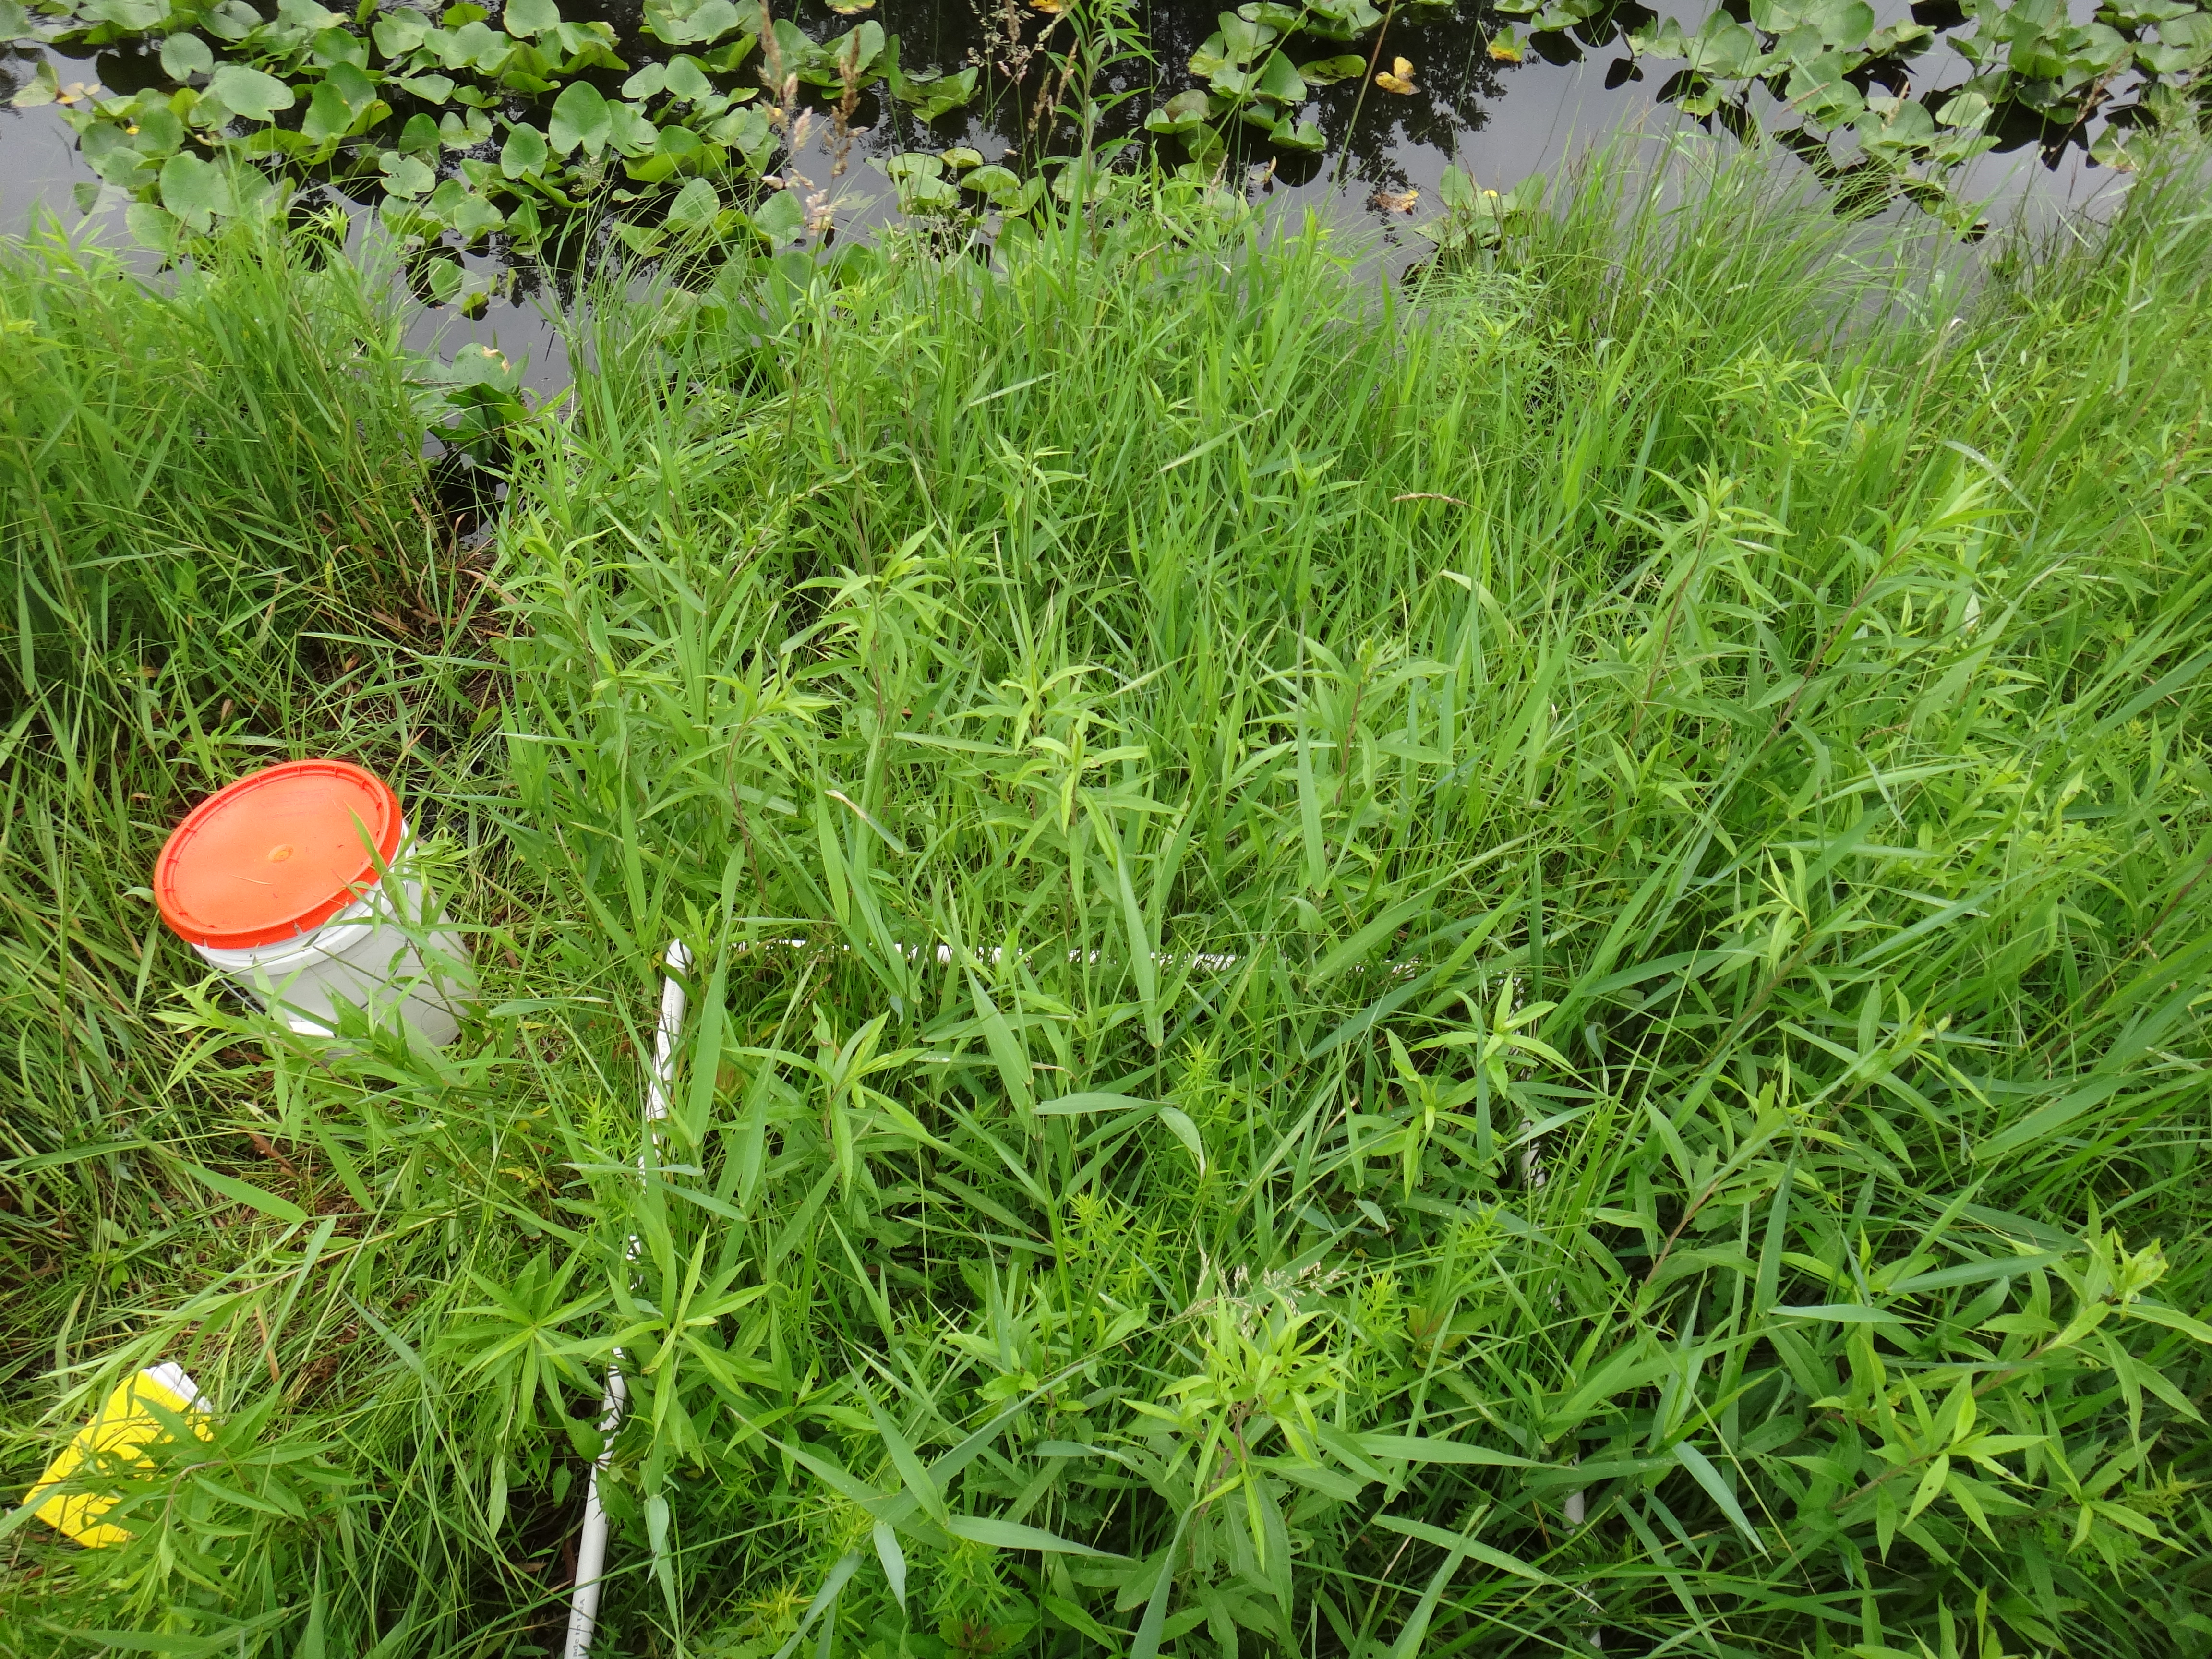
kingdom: Plantae
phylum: Tracheophyta
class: Liliopsida
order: Poales
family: Cyperaceae
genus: Carex
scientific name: Carex stricta
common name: Hummock sedge
